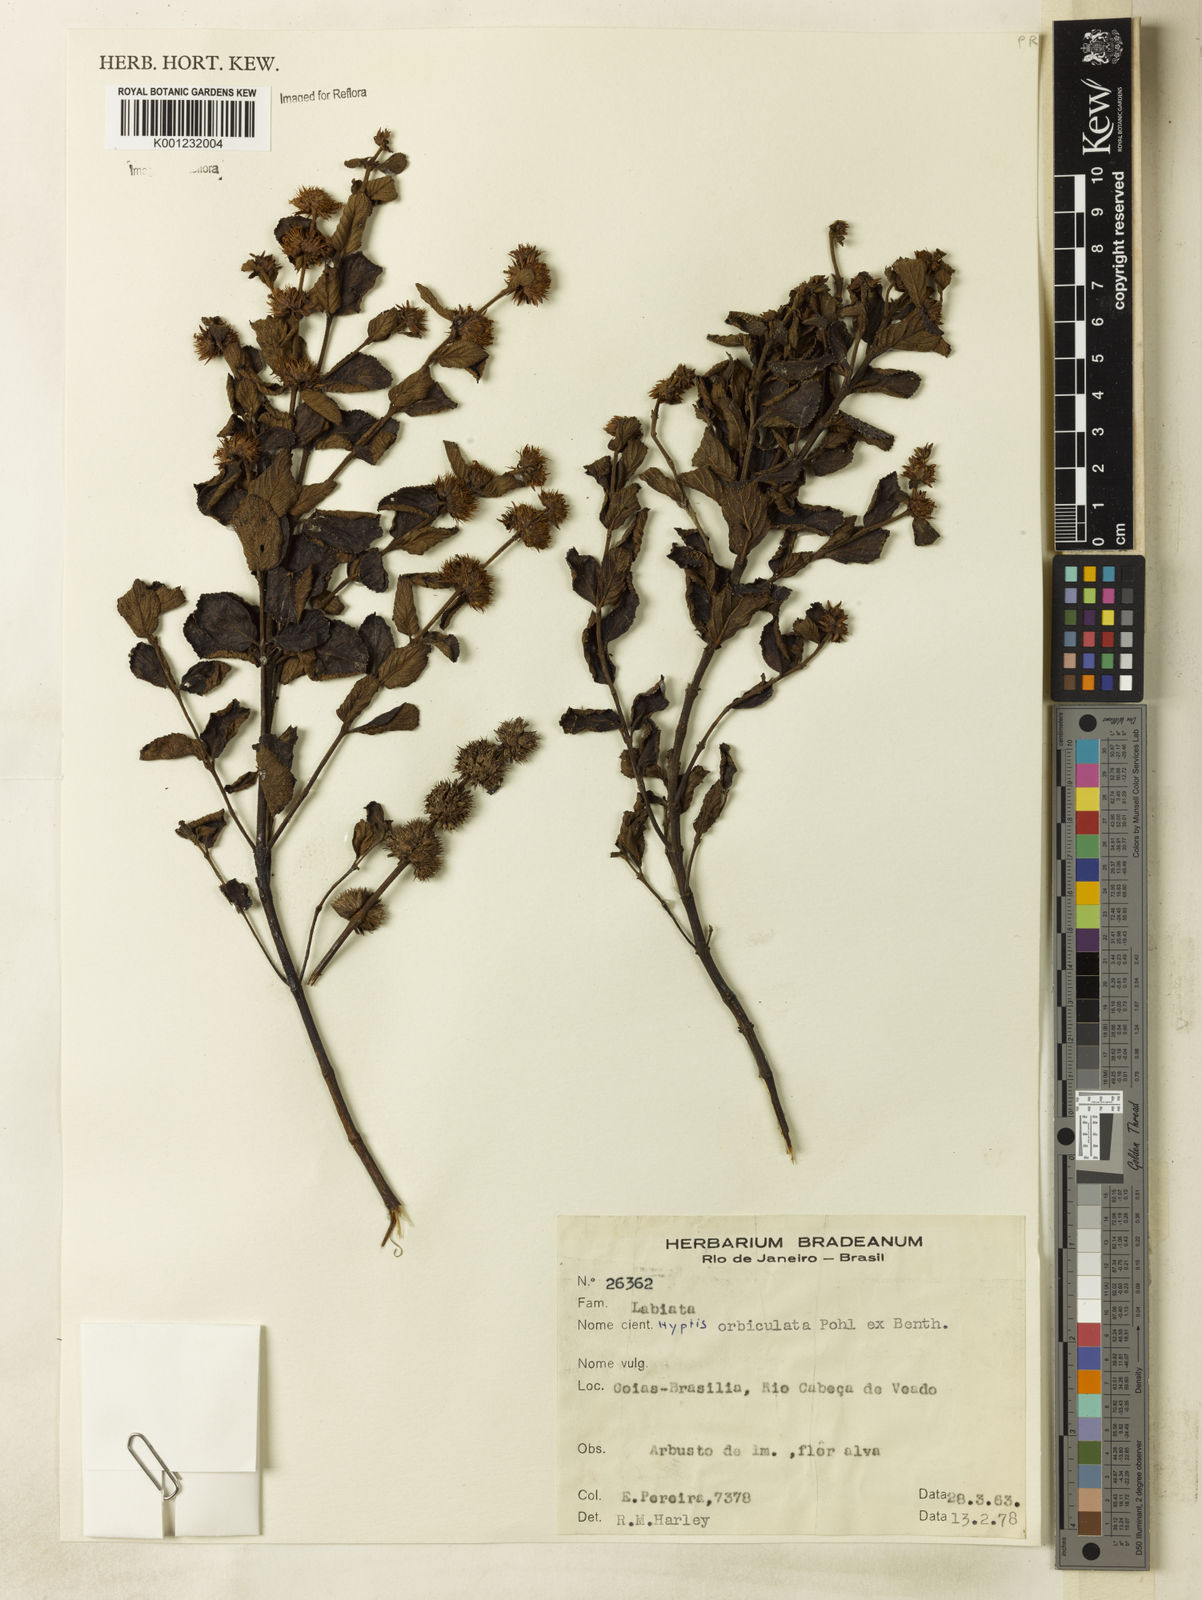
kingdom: Plantae
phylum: Tracheophyta
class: Magnoliopsida
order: Lamiales
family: Lamiaceae
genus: Hyptis
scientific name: Hyptis orbiculata
